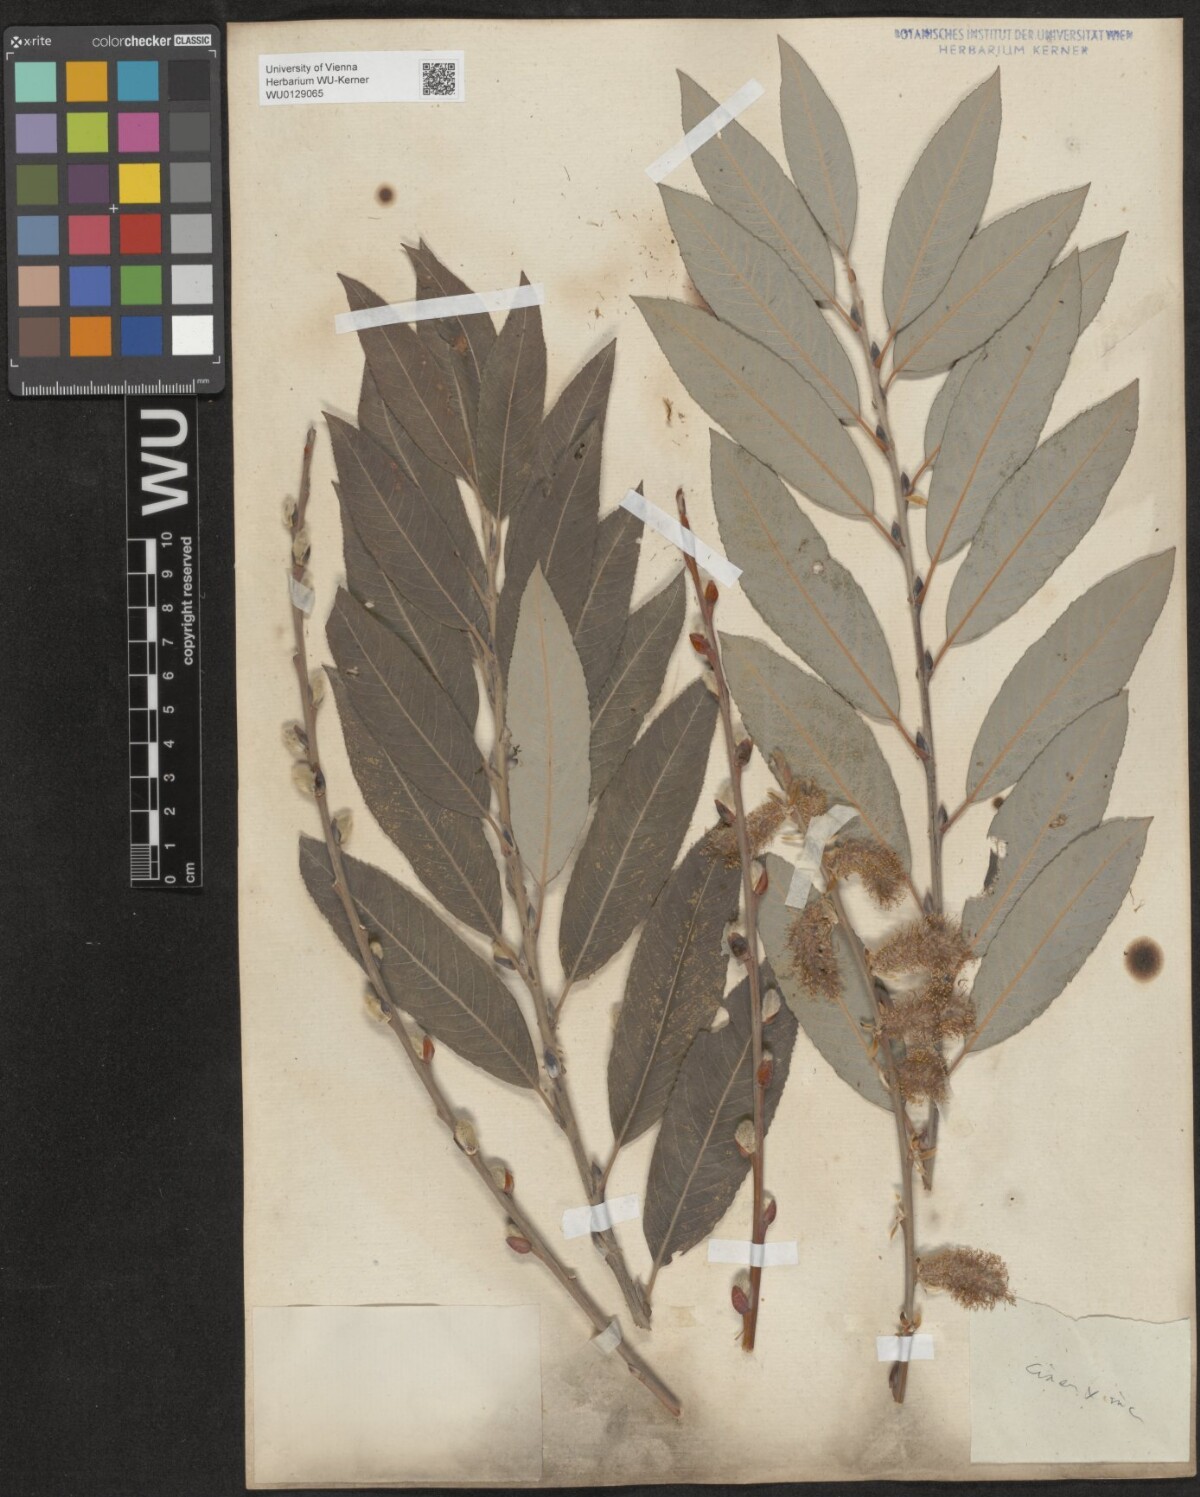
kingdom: Plantae
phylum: Tracheophyta
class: Magnoliopsida
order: Malpighiales
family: Salicaceae
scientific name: Salicaceae
